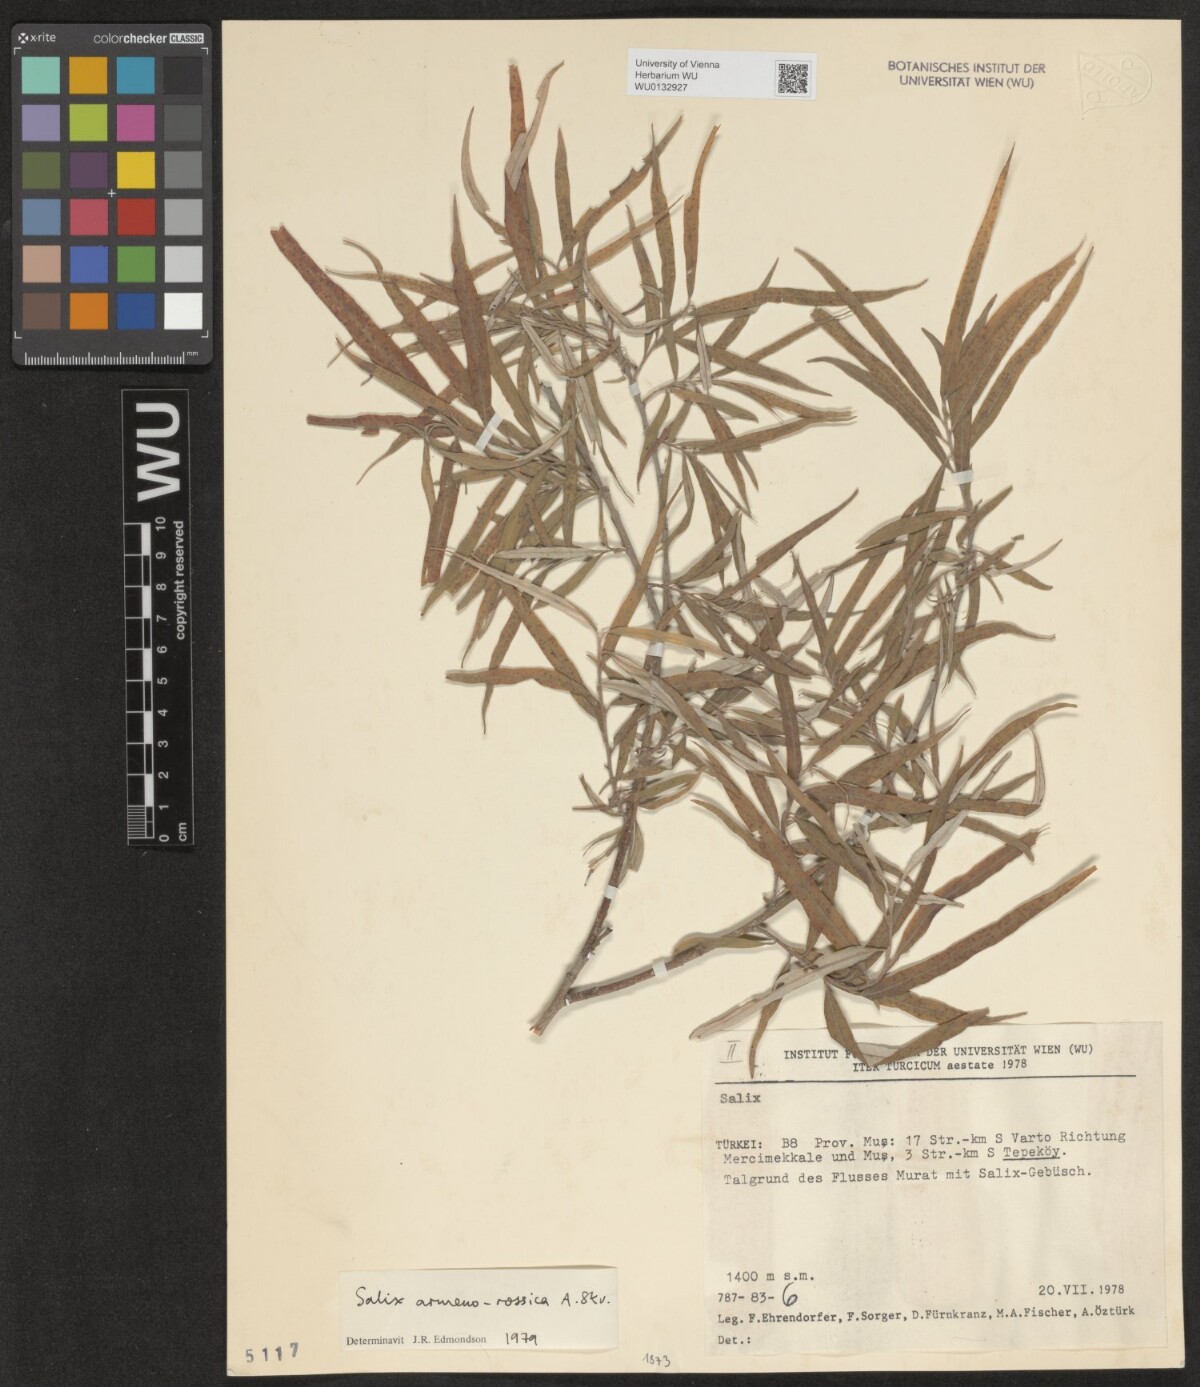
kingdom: Plantae
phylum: Tracheophyta
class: Magnoliopsida
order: Malpighiales
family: Salicaceae
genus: Salix
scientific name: Salix viminalis
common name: Osier
